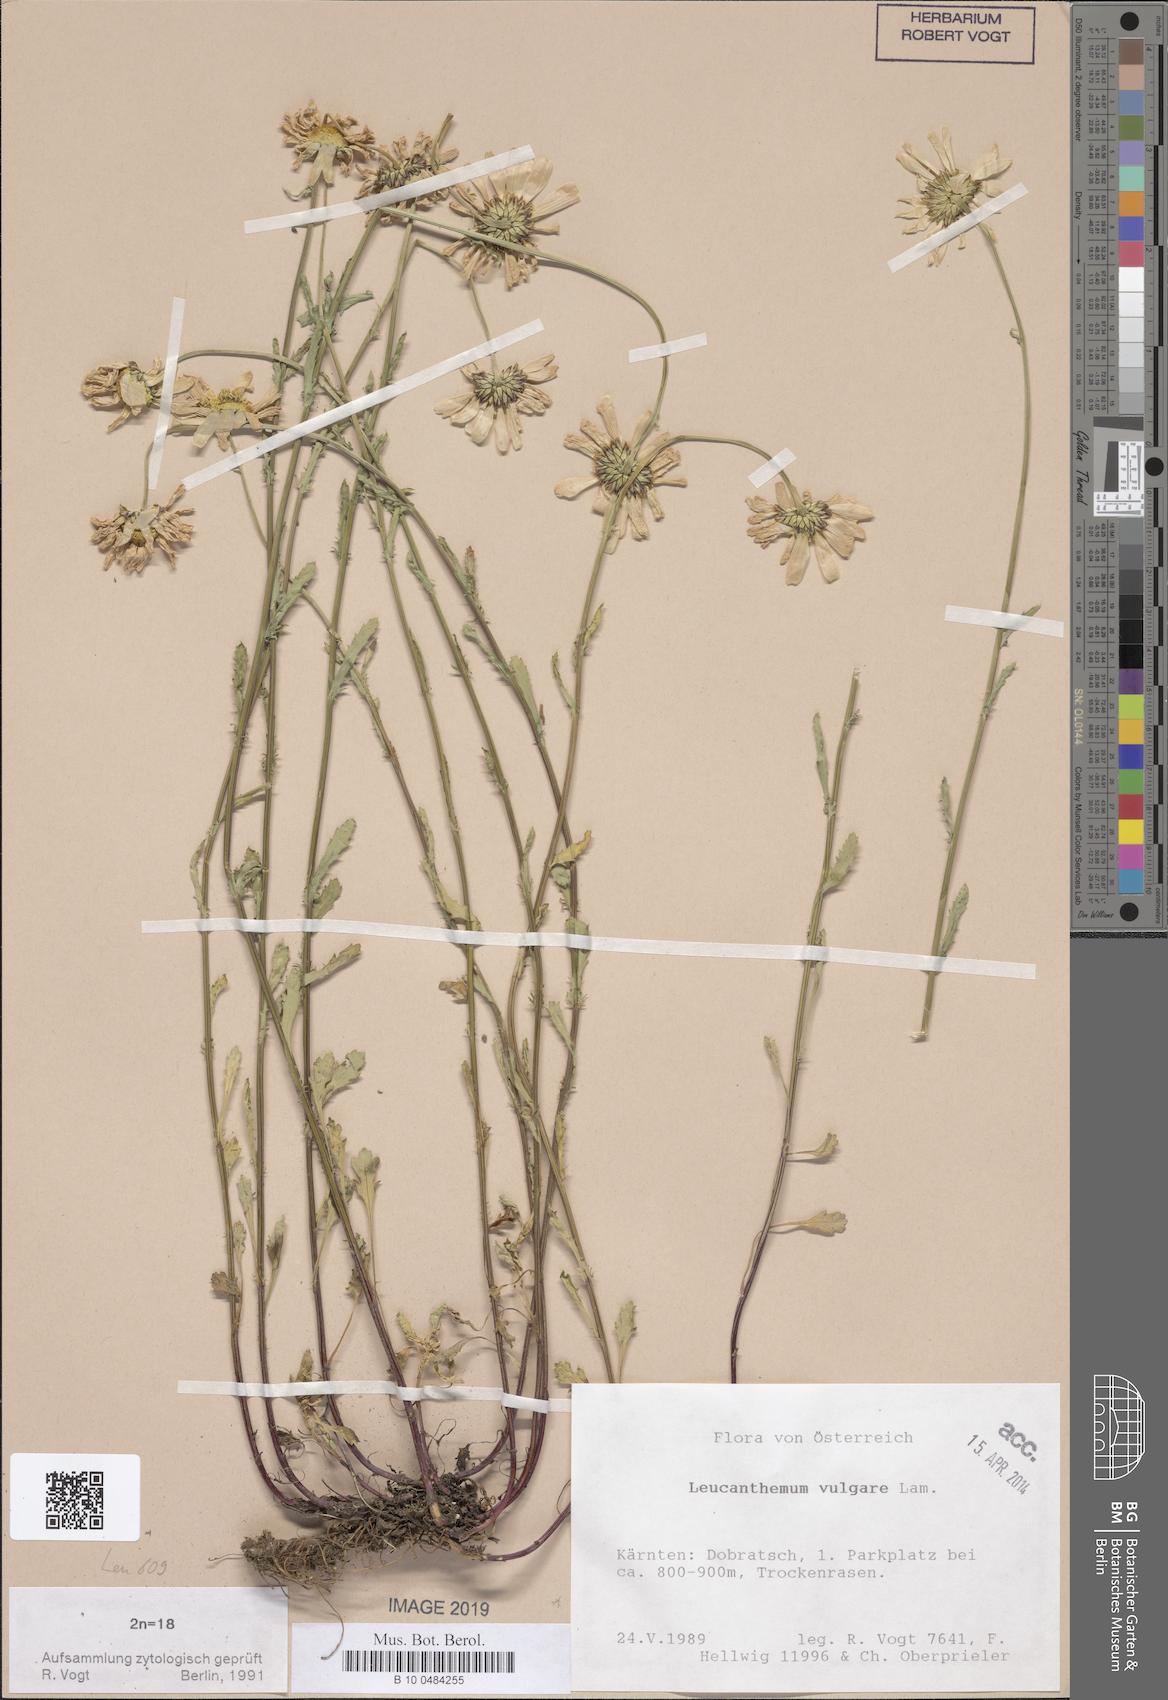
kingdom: Plantae
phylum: Tracheophyta
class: Magnoliopsida
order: Asterales
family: Asteraceae
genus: Leucanthemum
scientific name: Leucanthemum vulgare
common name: Oxeye daisy
